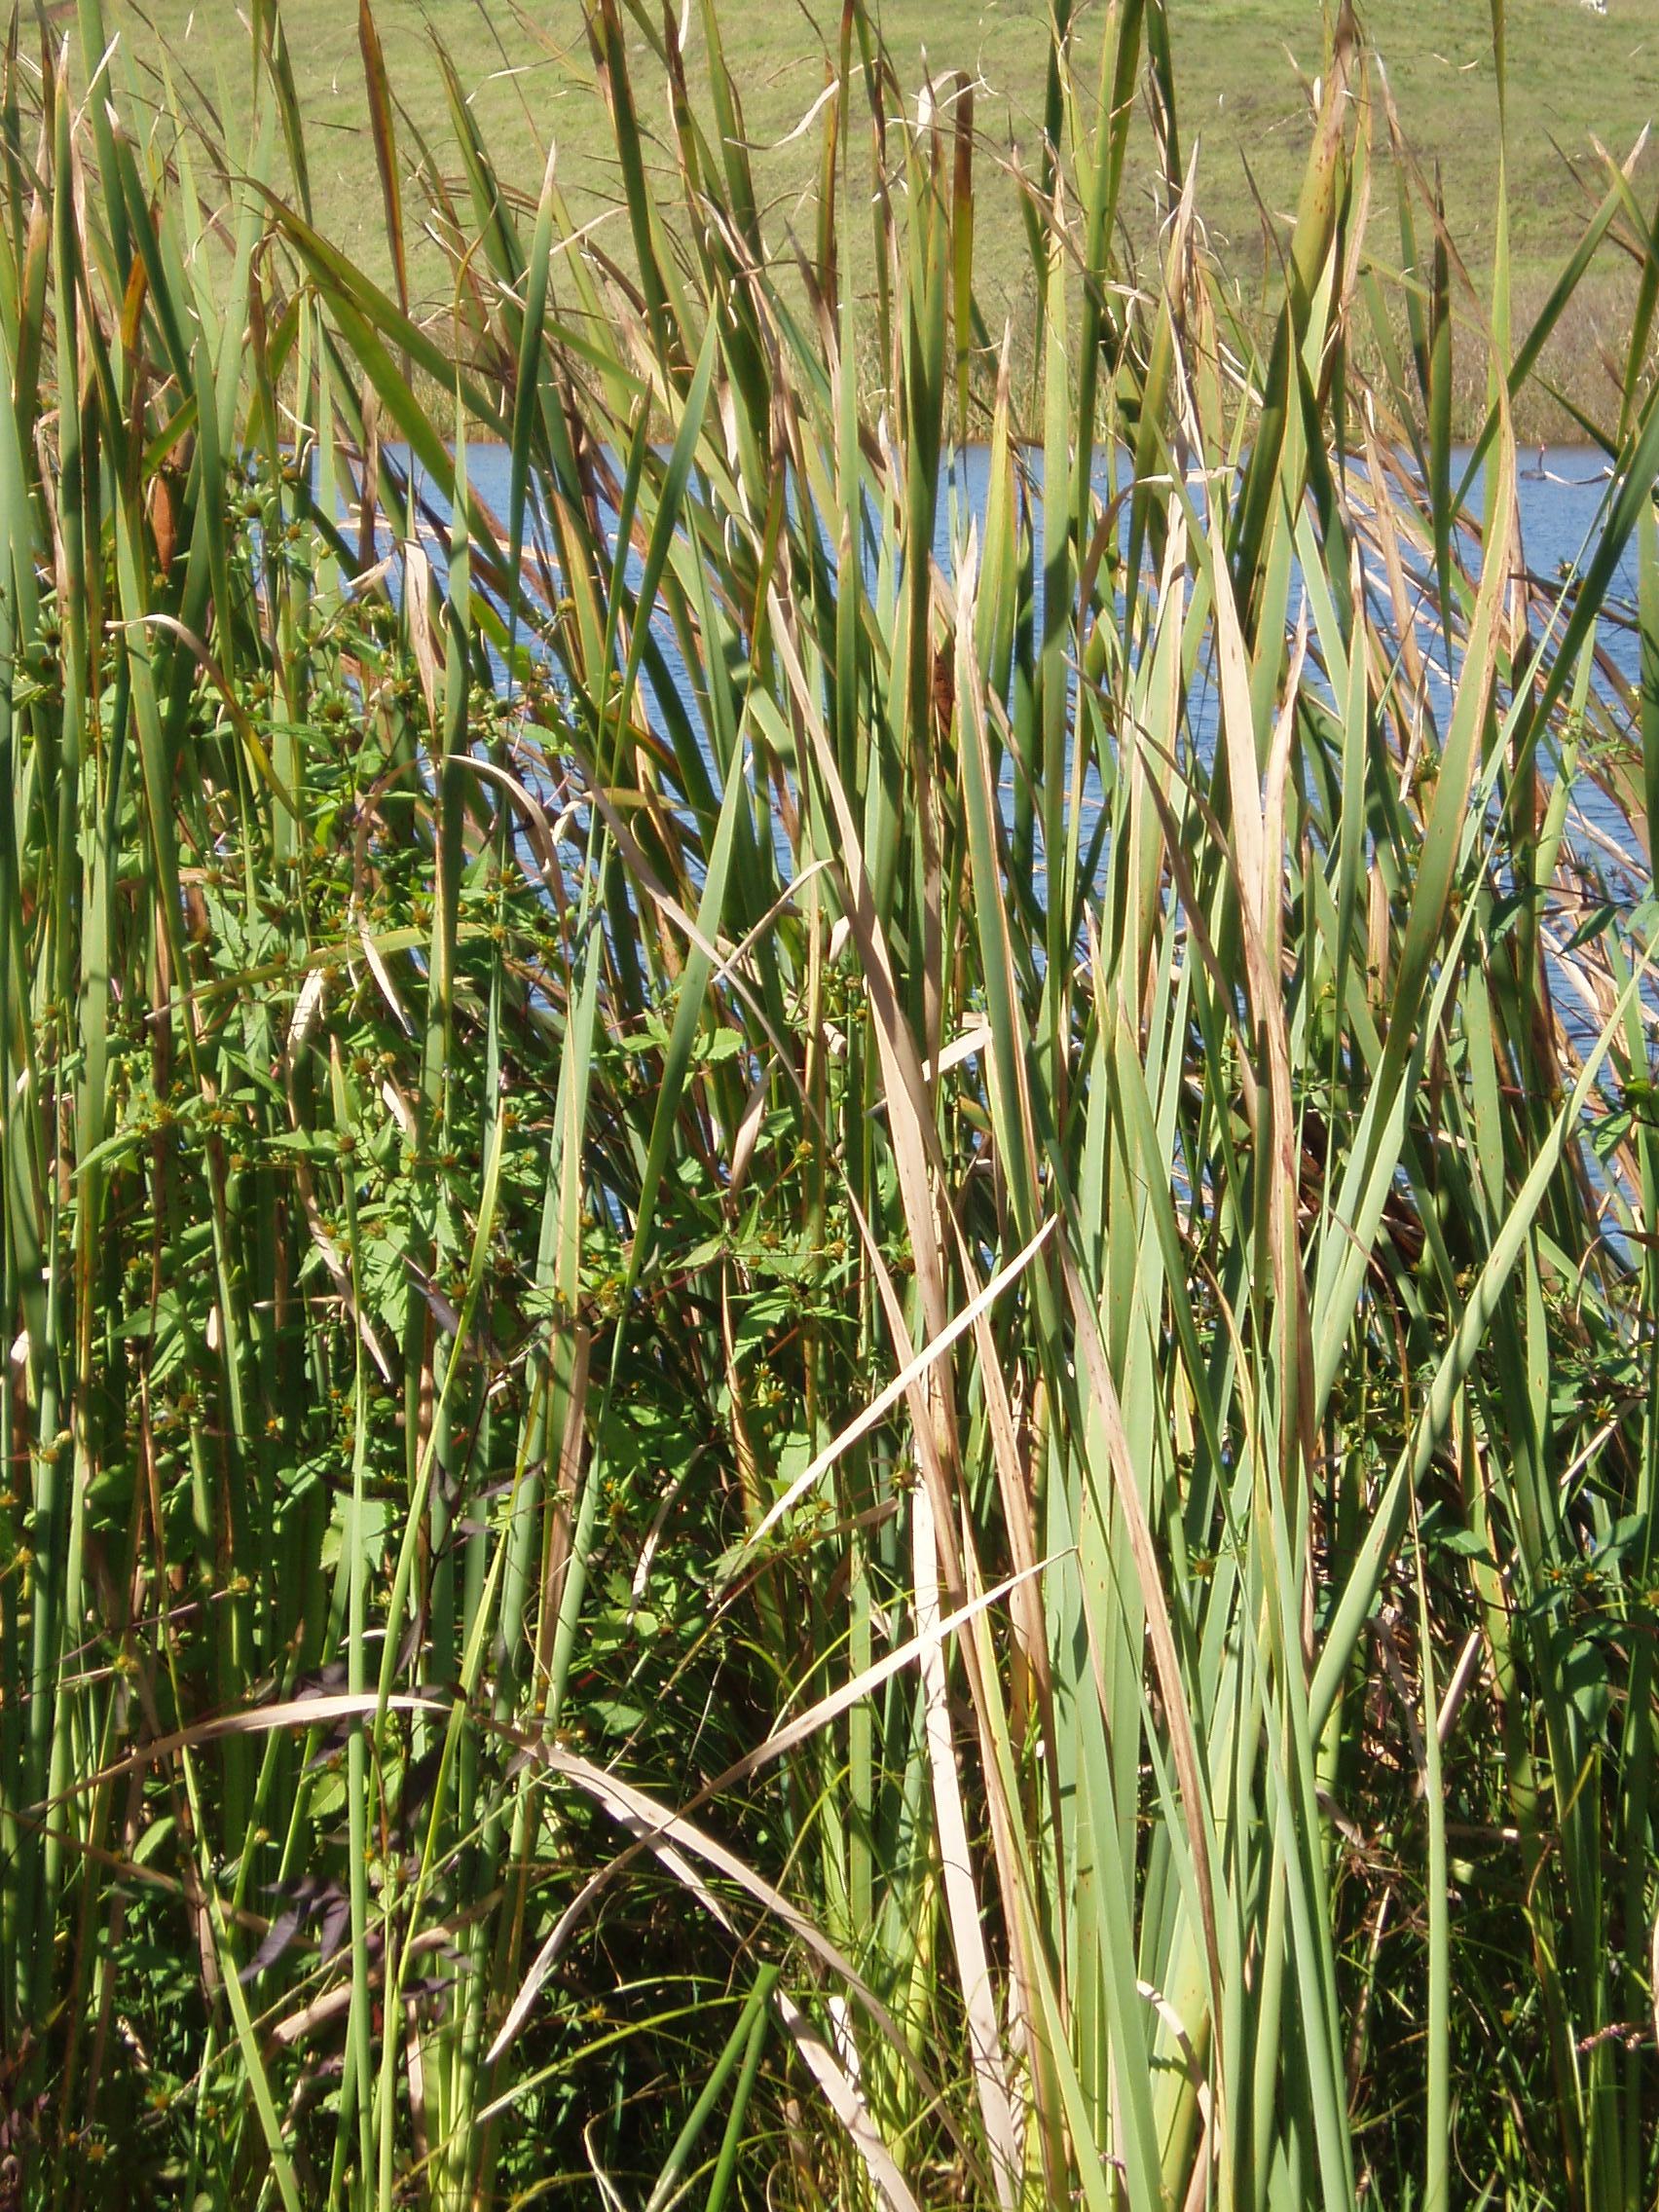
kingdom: Plantae
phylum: Tracheophyta
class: Magnoliopsida
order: Asterales
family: Asteraceae
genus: Bidens
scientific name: Bidens frondosa
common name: Beggarticks
